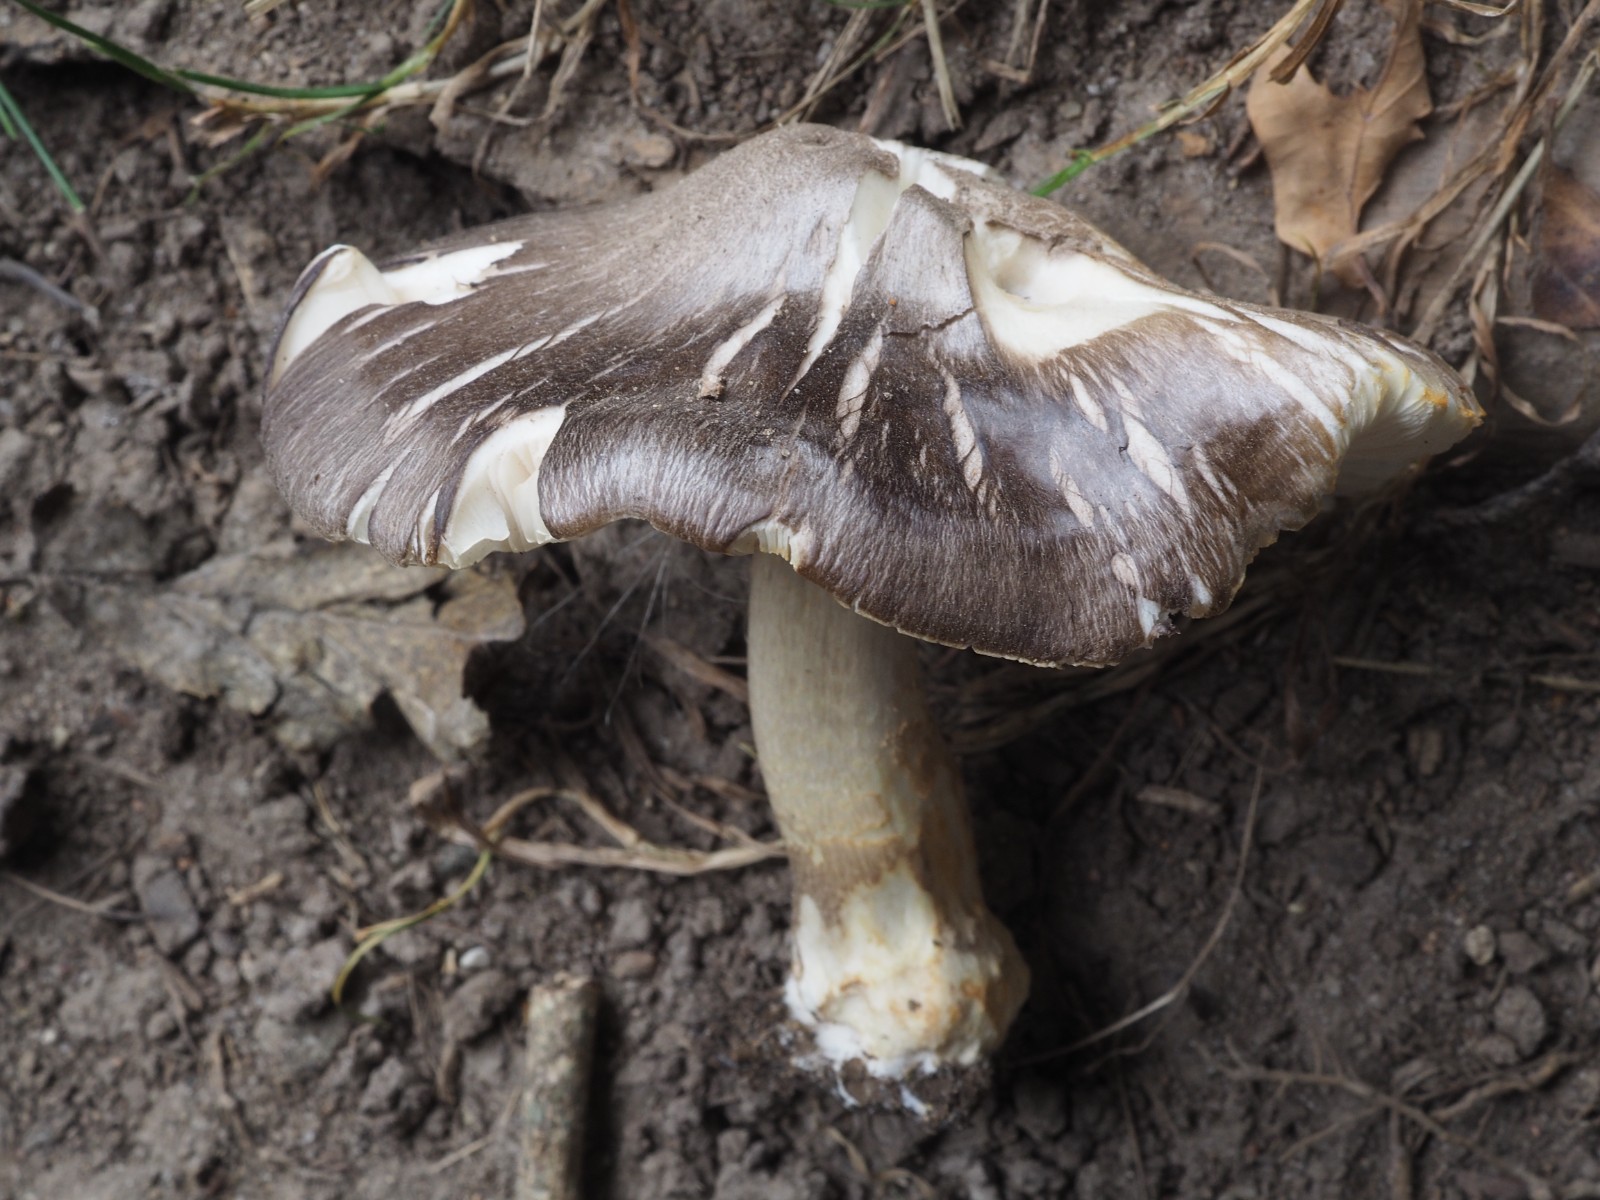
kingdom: Fungi
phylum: Basidiomycota
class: Agaricomycetes
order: Agaricales
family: Pluteaceae
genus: Pluteus
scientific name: Pluteus
